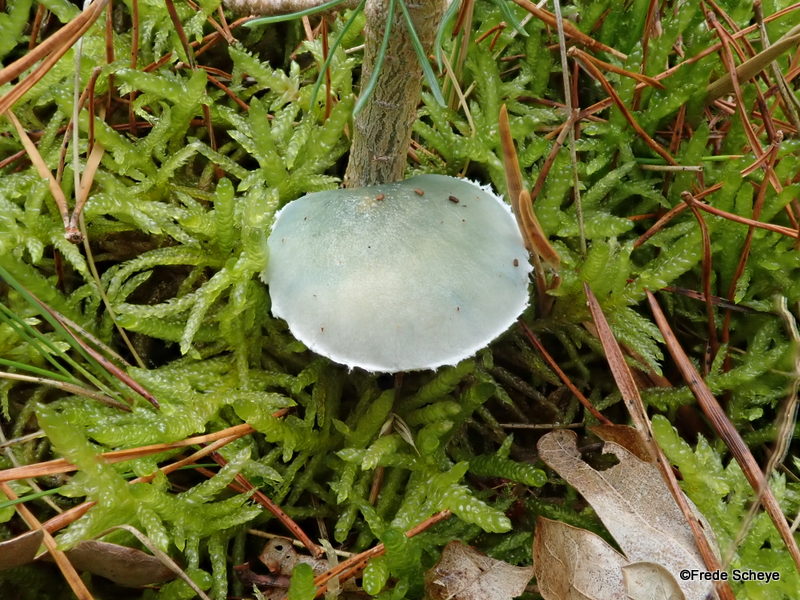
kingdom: Fungi
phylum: Basidiomycota
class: Agaricomycetes
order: Agaricales
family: Strophariaceae
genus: Stropharia
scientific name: Stropharia cyanea
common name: blågrøn bredblad
